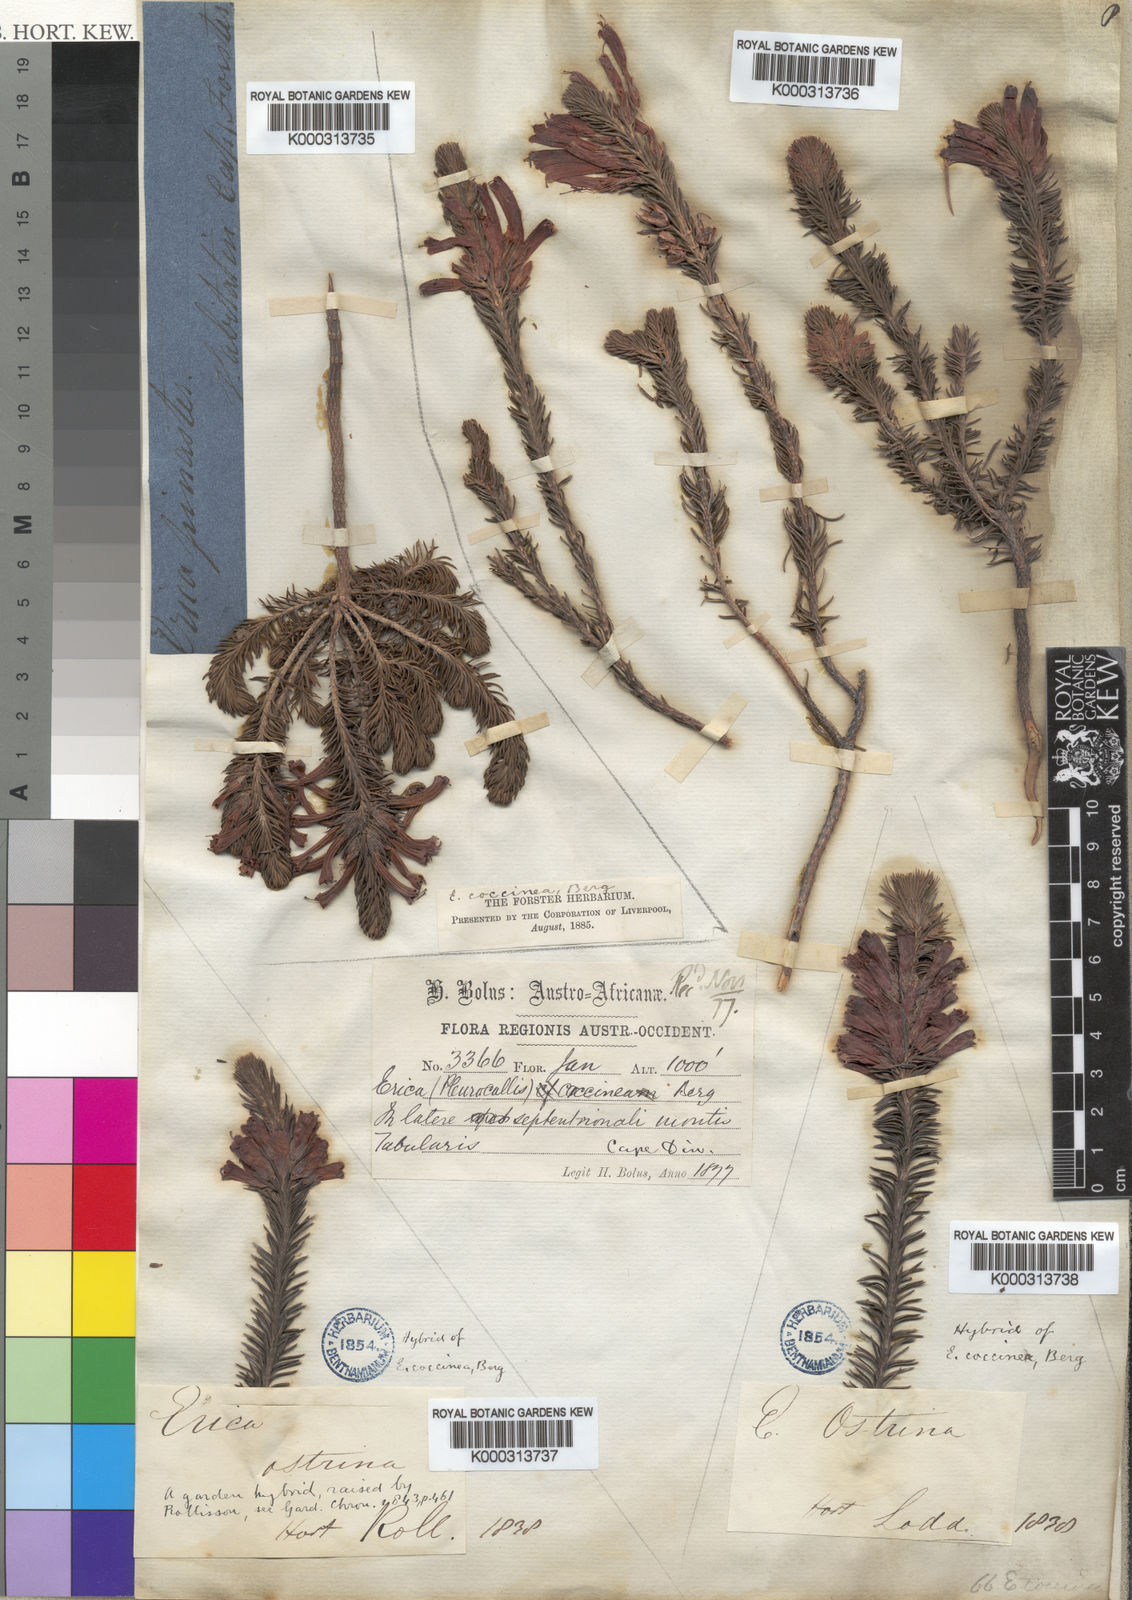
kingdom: Plantae
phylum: Tracheophyta
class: Magnoliopsida
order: Ericales
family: Ericaceae
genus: Erica
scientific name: Erica abietina
